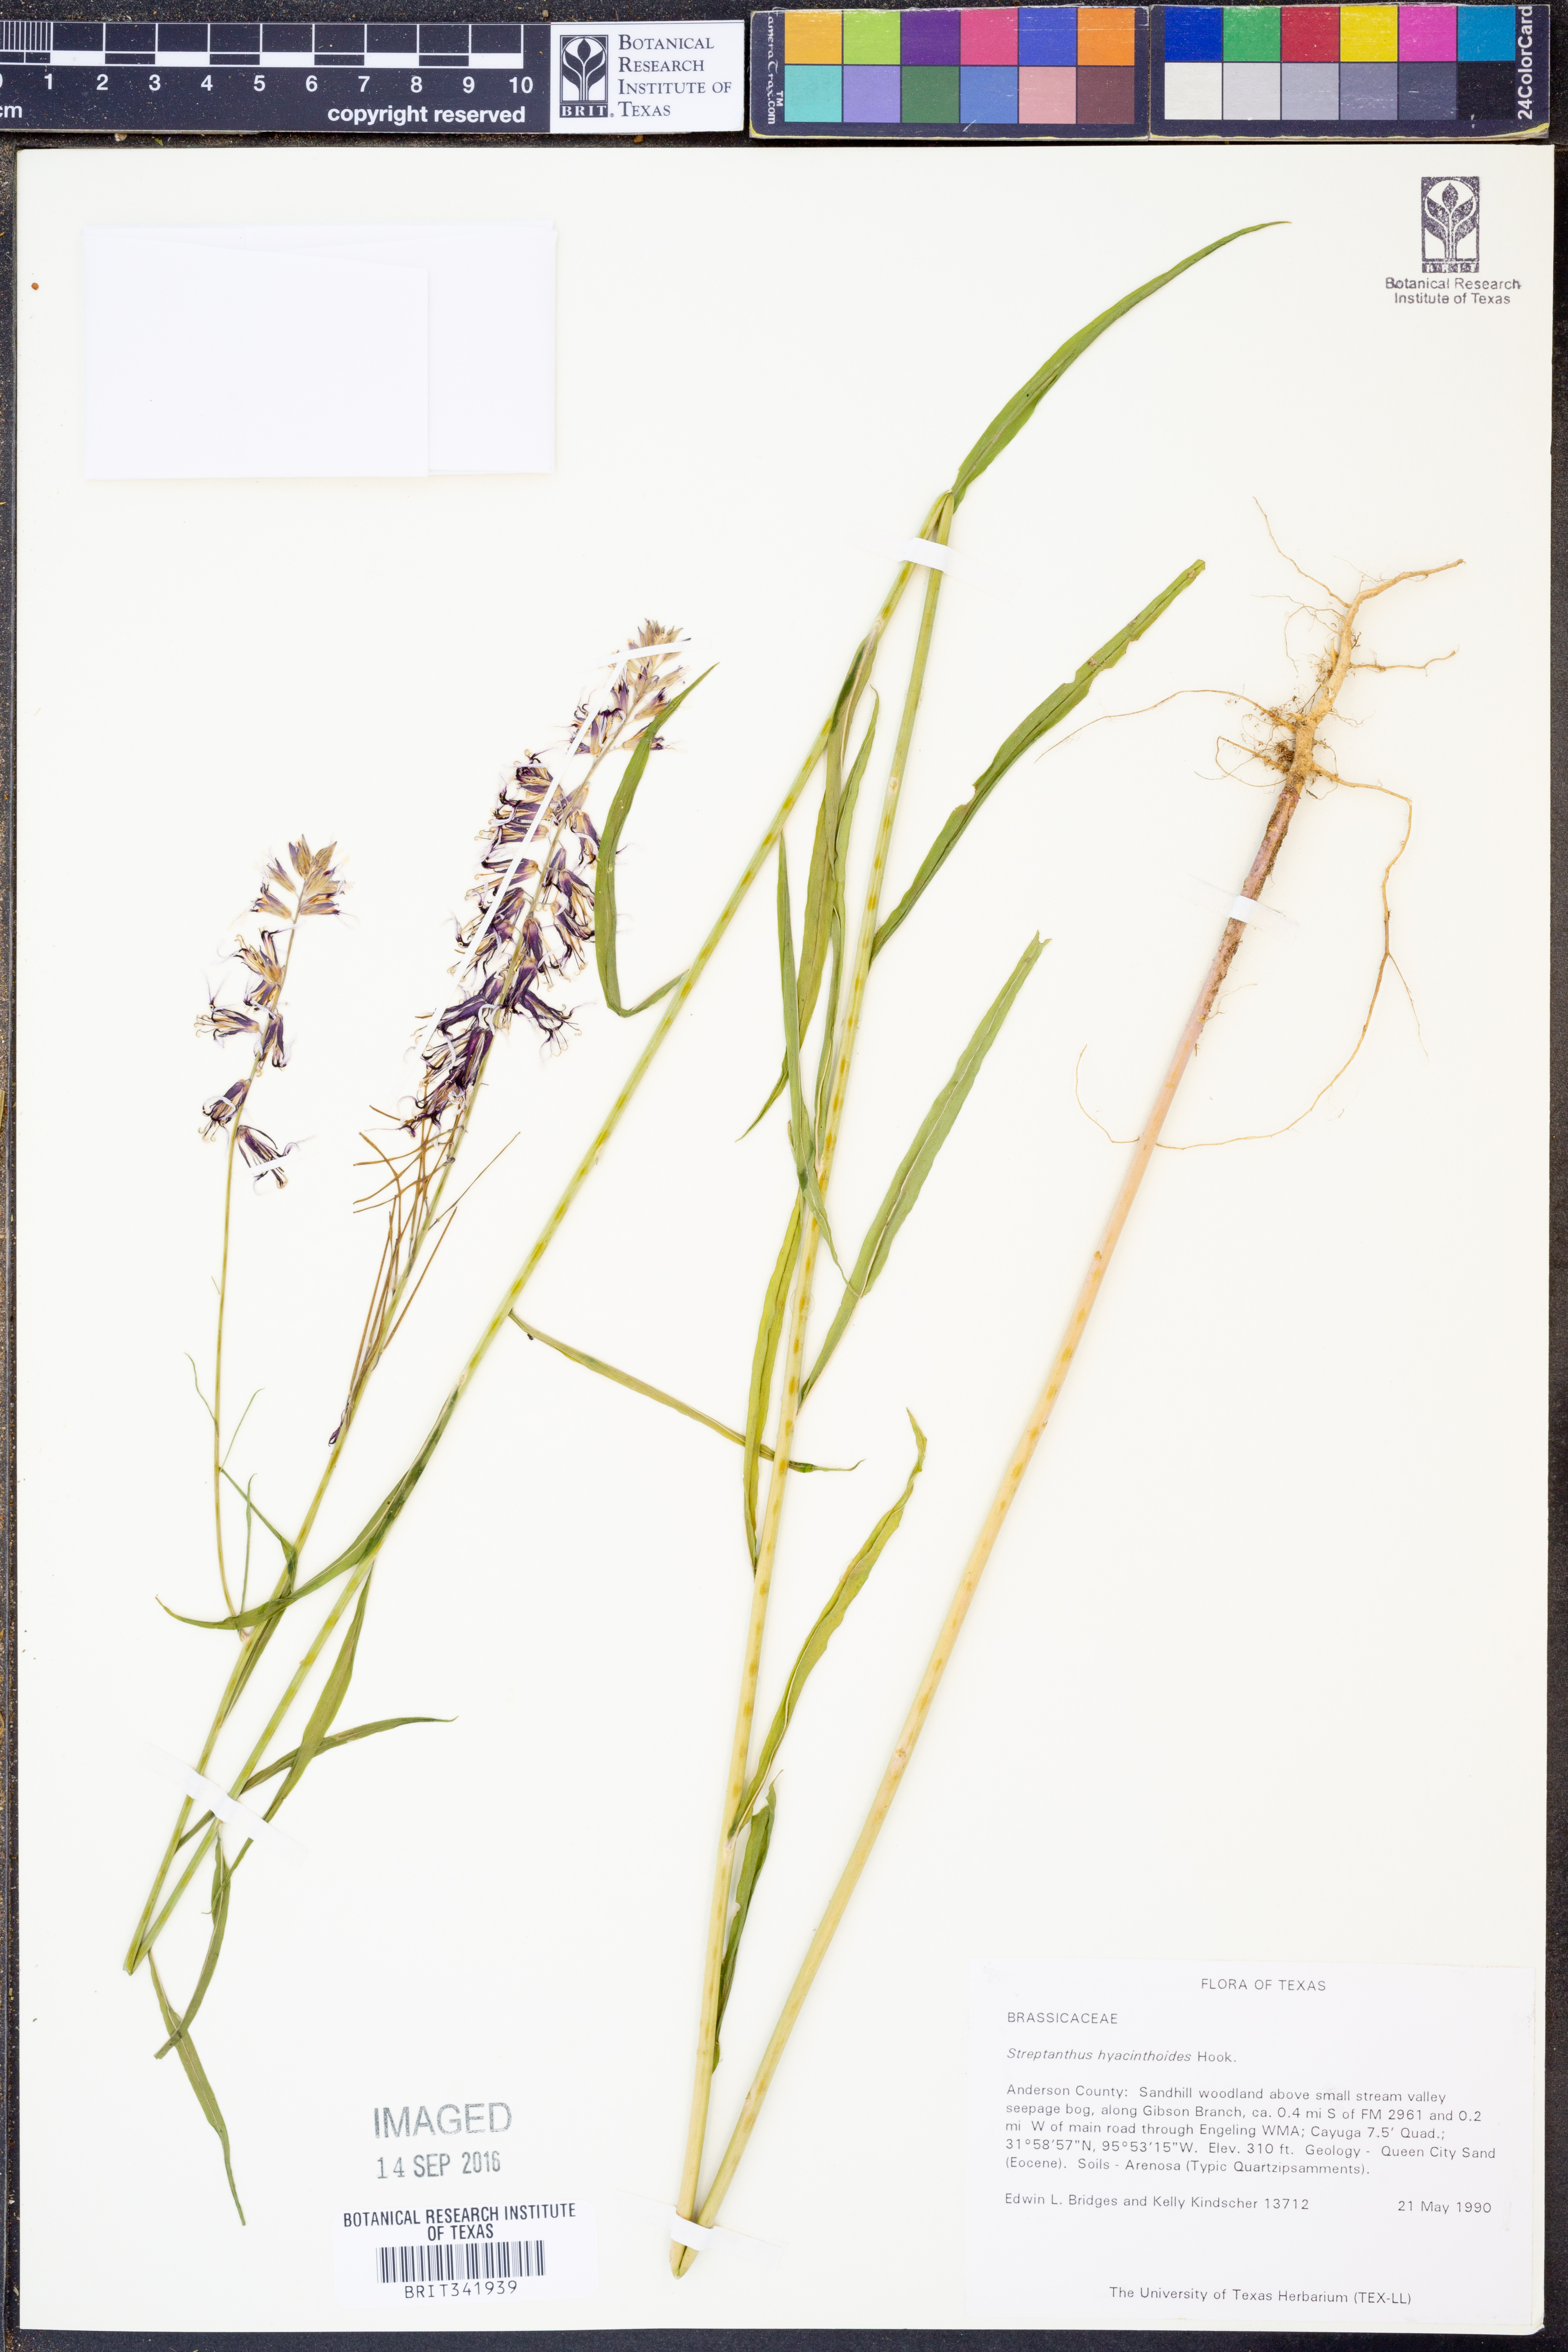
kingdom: Plantae
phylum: Tracheophyta
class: Magnoliopsida
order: Brassicales
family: Brassicaceae
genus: Streptanthus
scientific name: Streptanthus hyacinthoides
